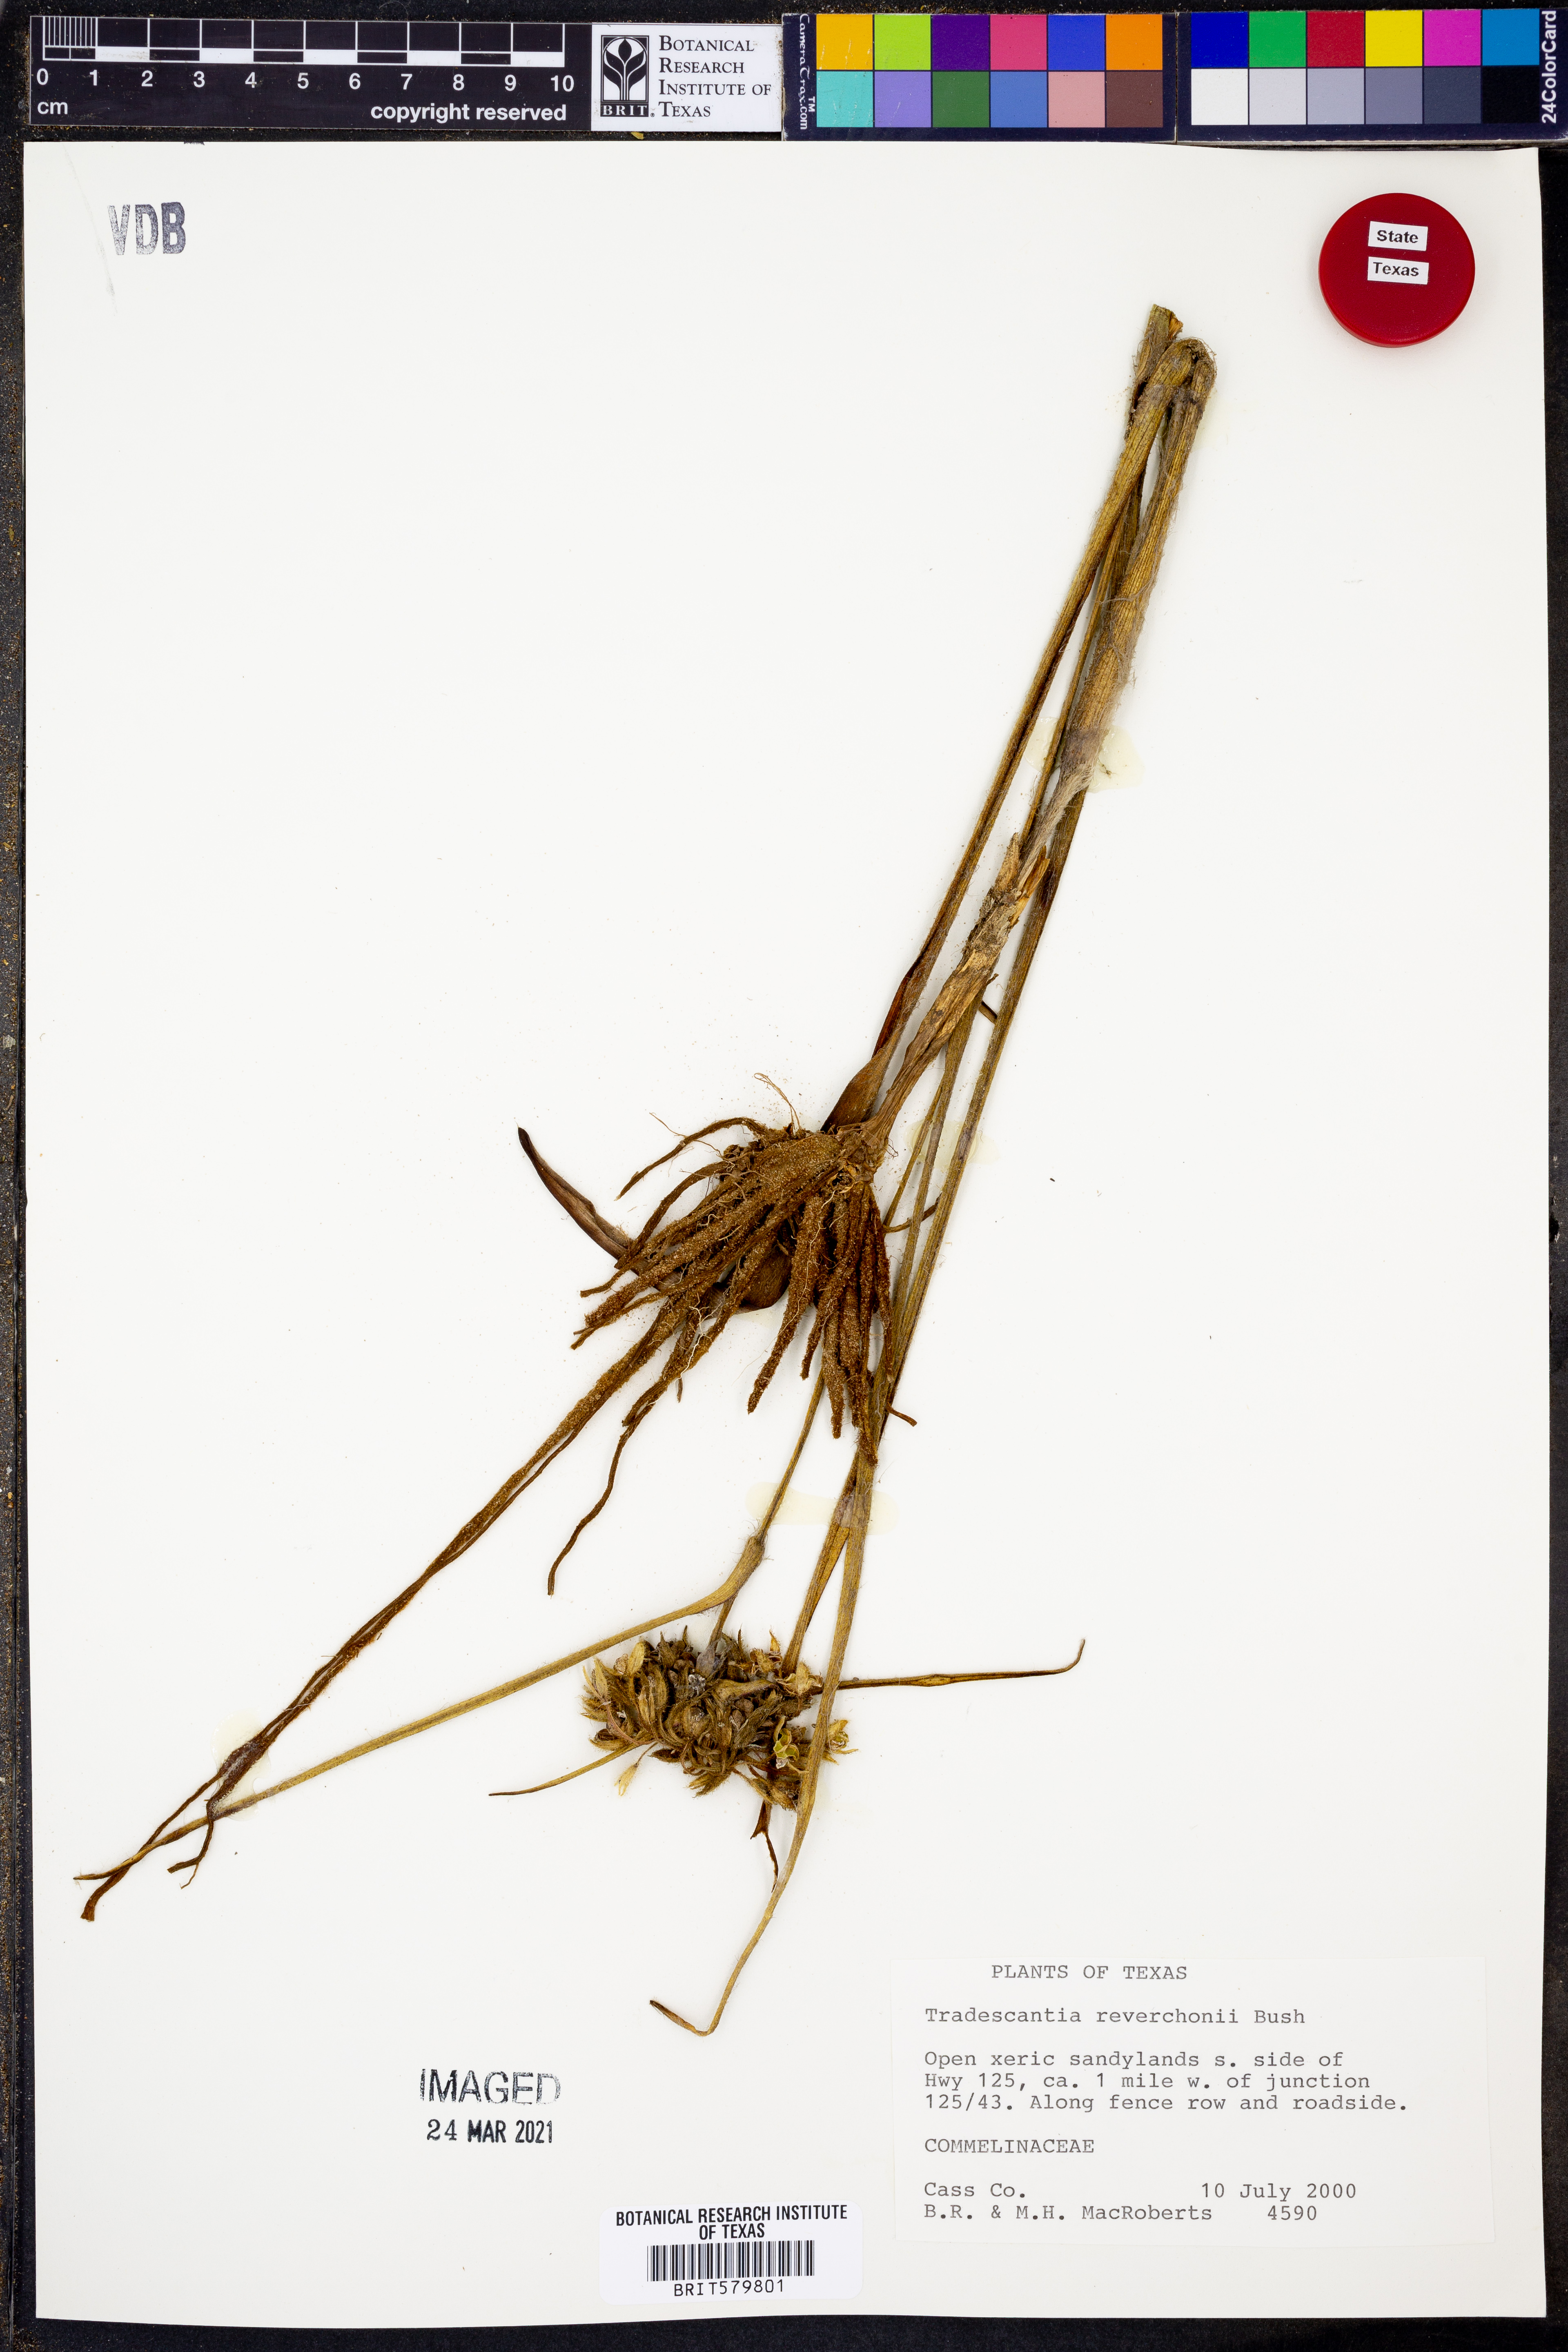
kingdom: Plantae
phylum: Tracheophyta
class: Liliopsida
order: Commelinales
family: Commelinaceae
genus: Tradescantia
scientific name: Tradescantia reverchonii
